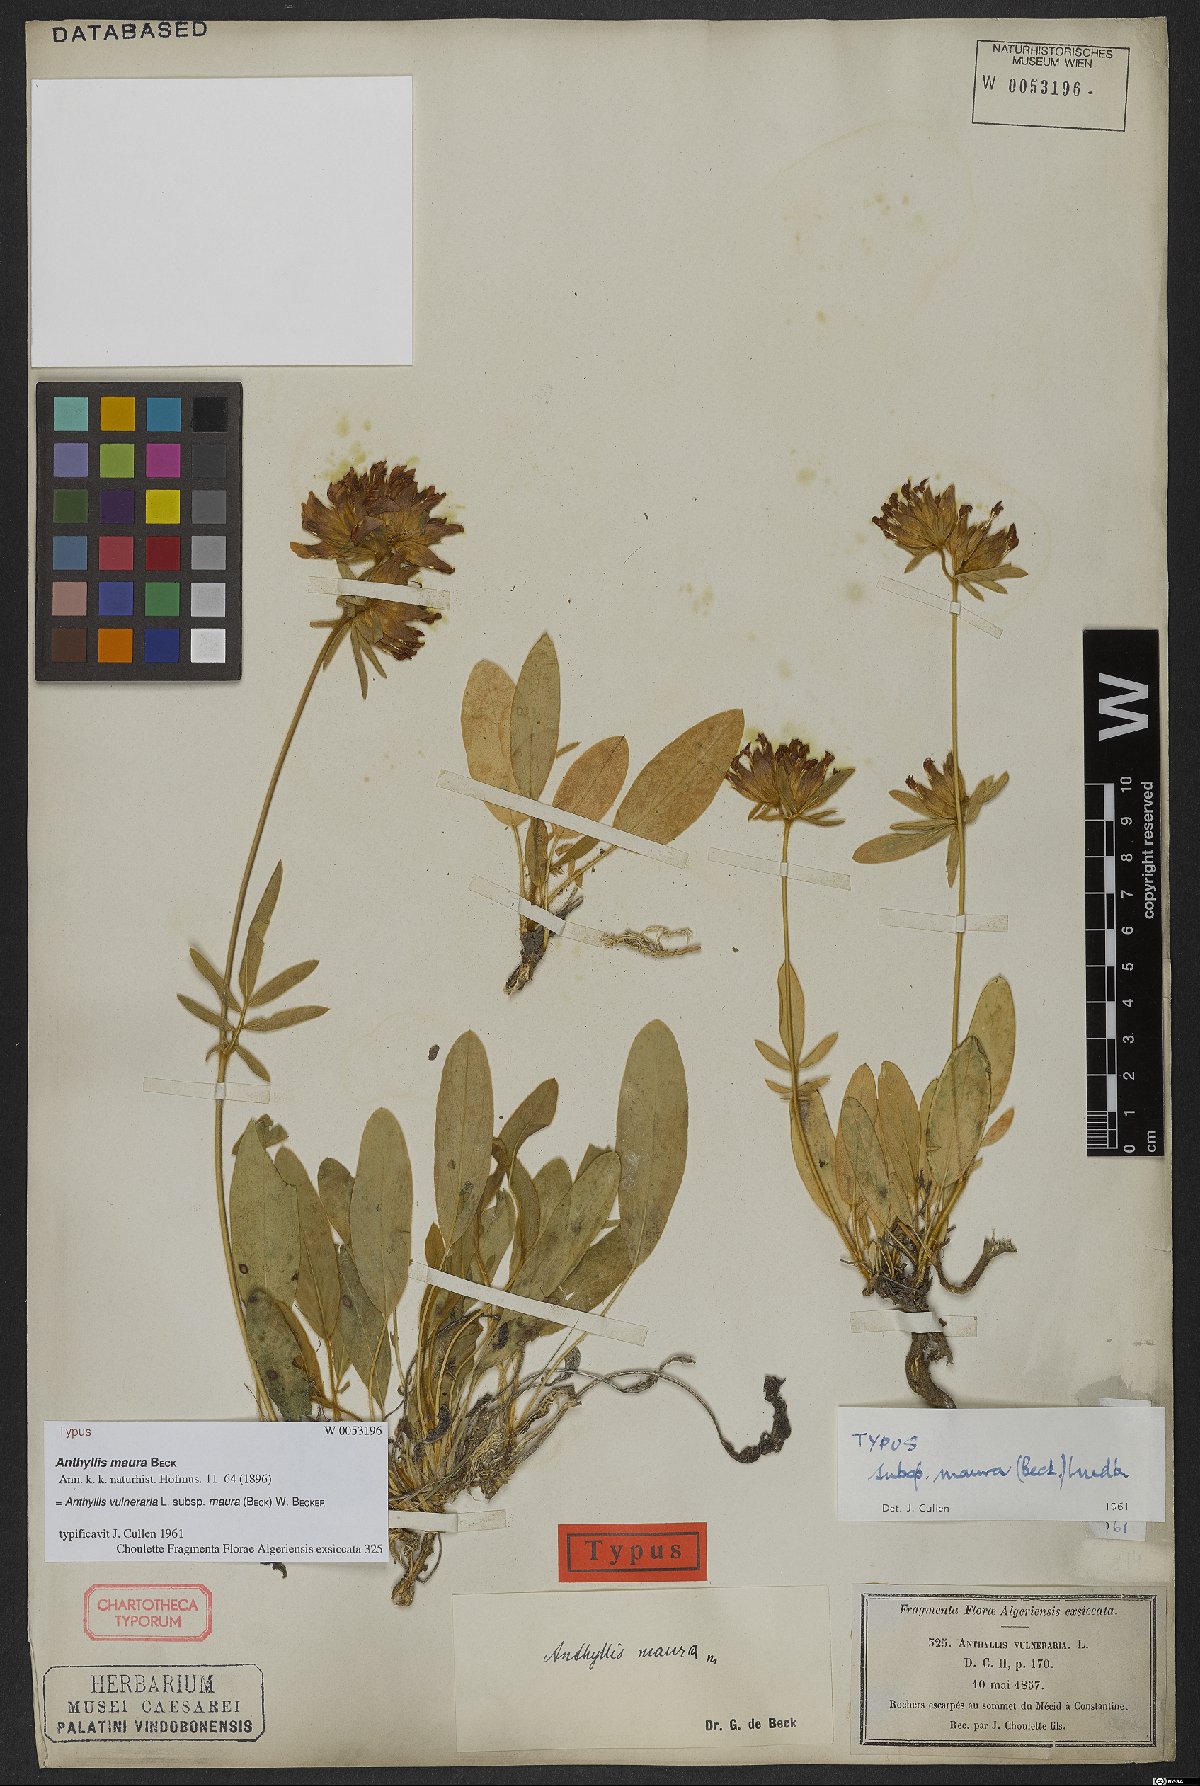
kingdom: Plantae
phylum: Tracheophyta
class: Magnoliopsida
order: Fabales
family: Fabaceae
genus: Anthyllis
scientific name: Anthyllis vulneraria
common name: Kidney vetch
